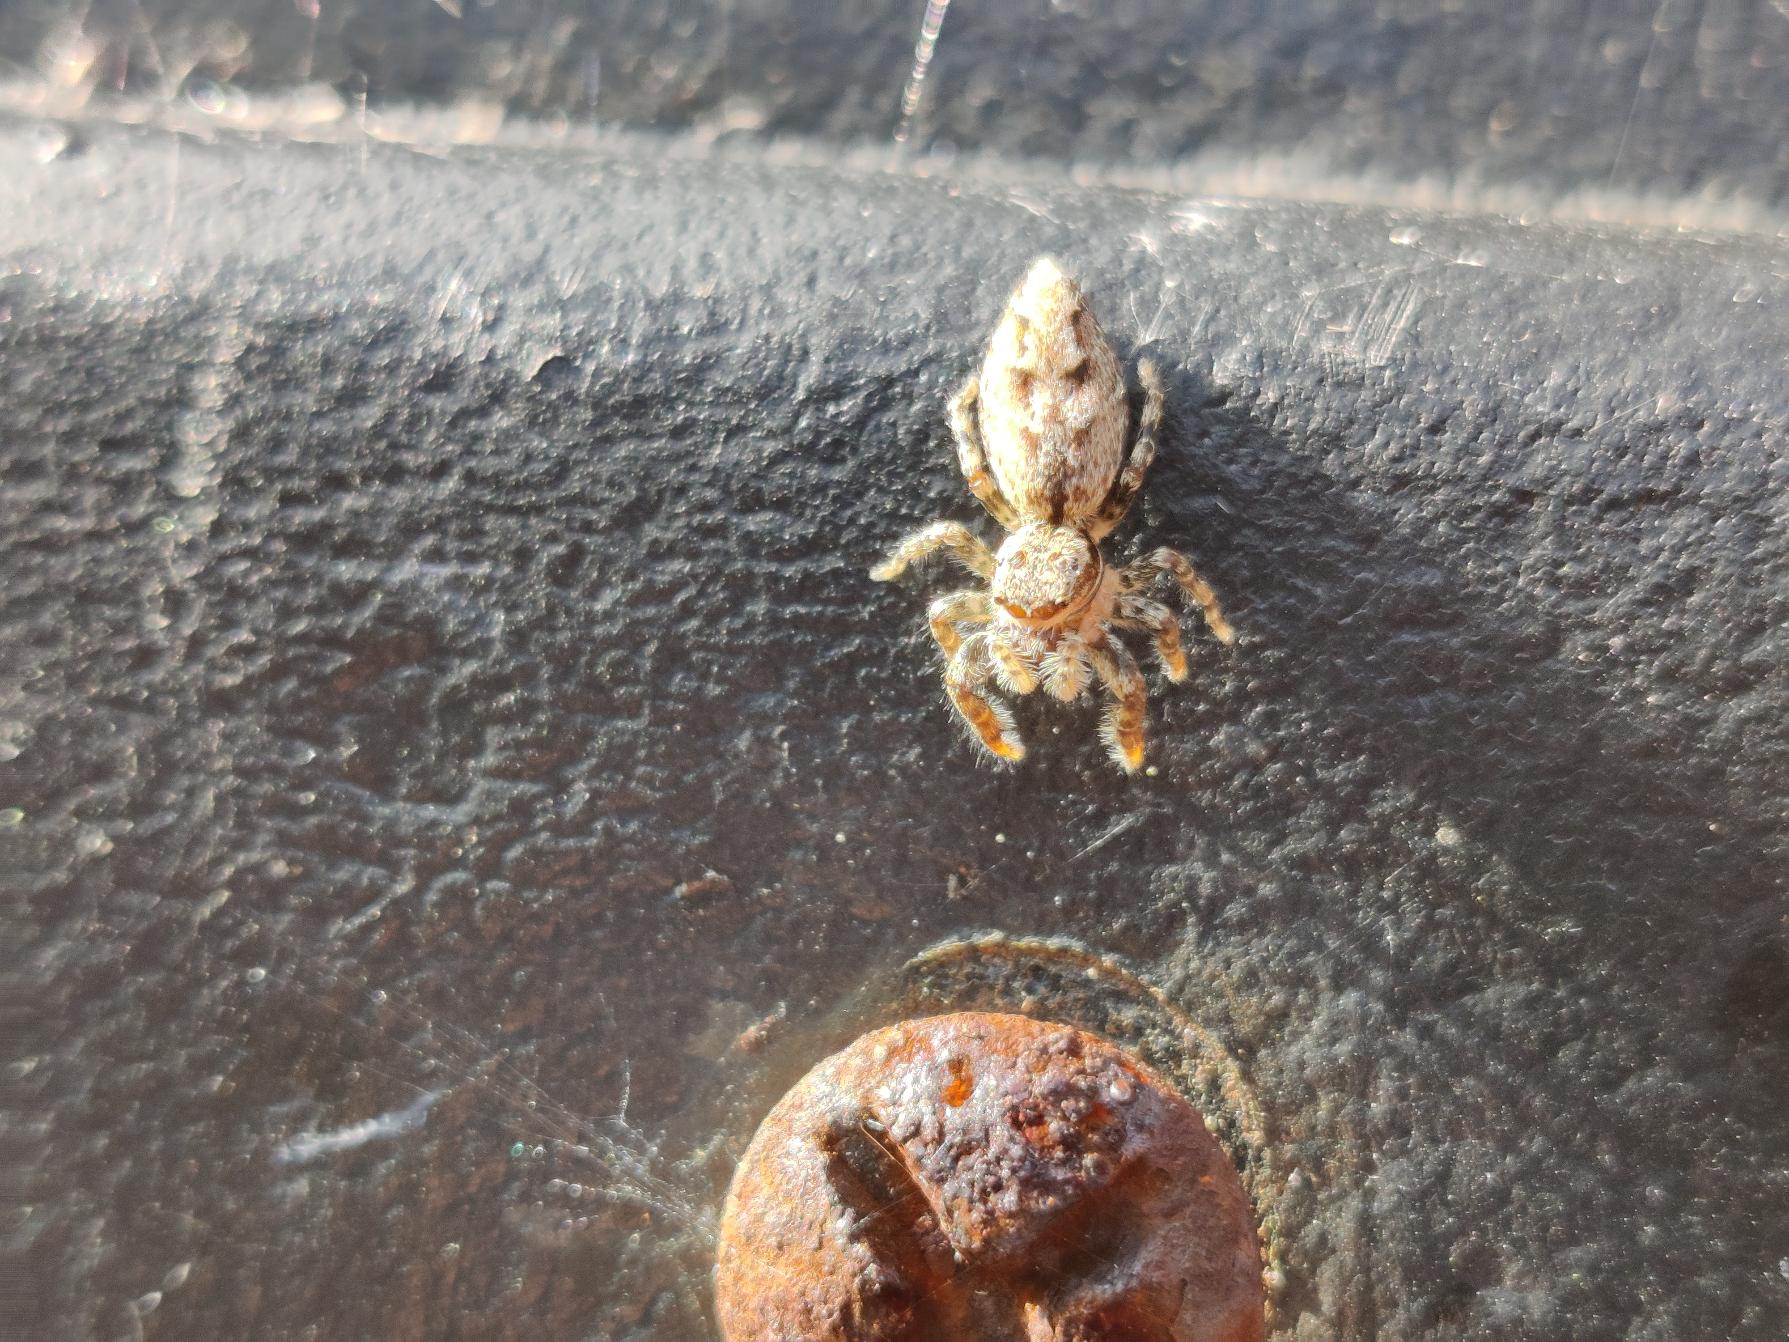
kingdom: Animalia
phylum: Arthropoda
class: Arachnida
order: Araneae
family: Salticidae
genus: Marpissa
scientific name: Marpissa muscosa
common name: Stor springedderkop
